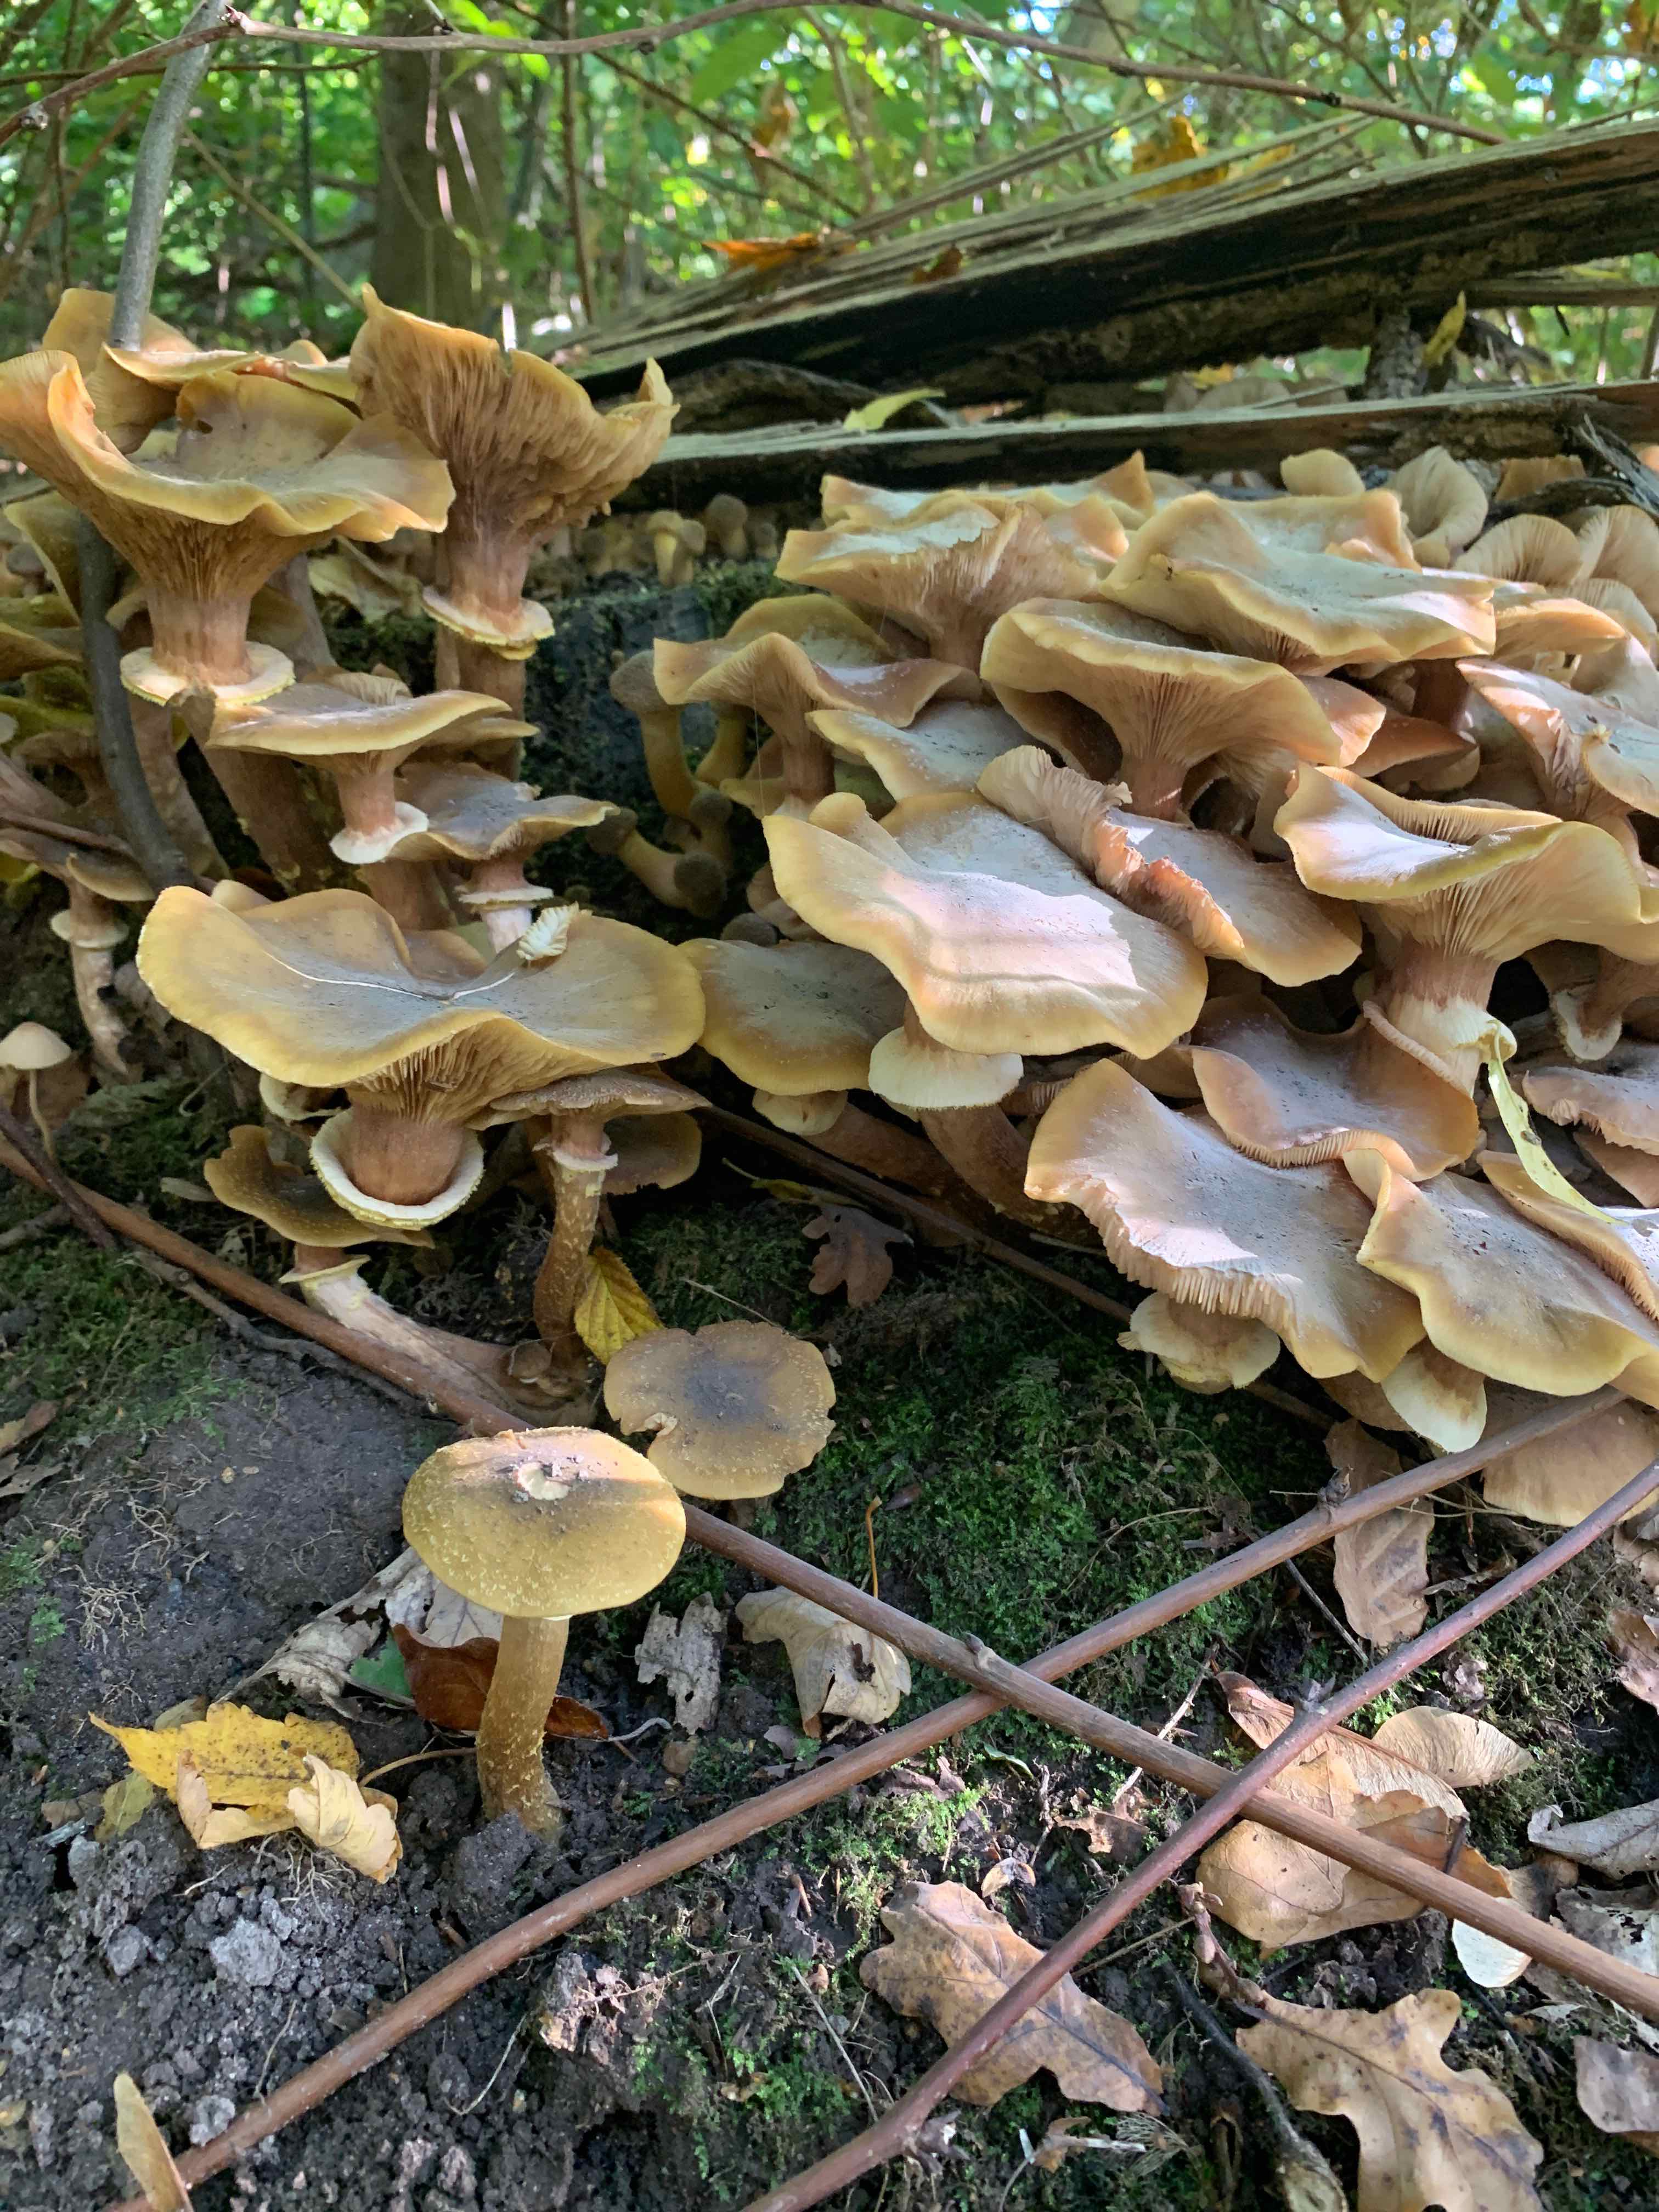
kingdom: Fungi
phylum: Basidiomycota
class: Agaricomycetes
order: Agaricales
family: Physalacriaceae
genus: Armillaria
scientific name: Armillaria mellea
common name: ægte honningsvamp
